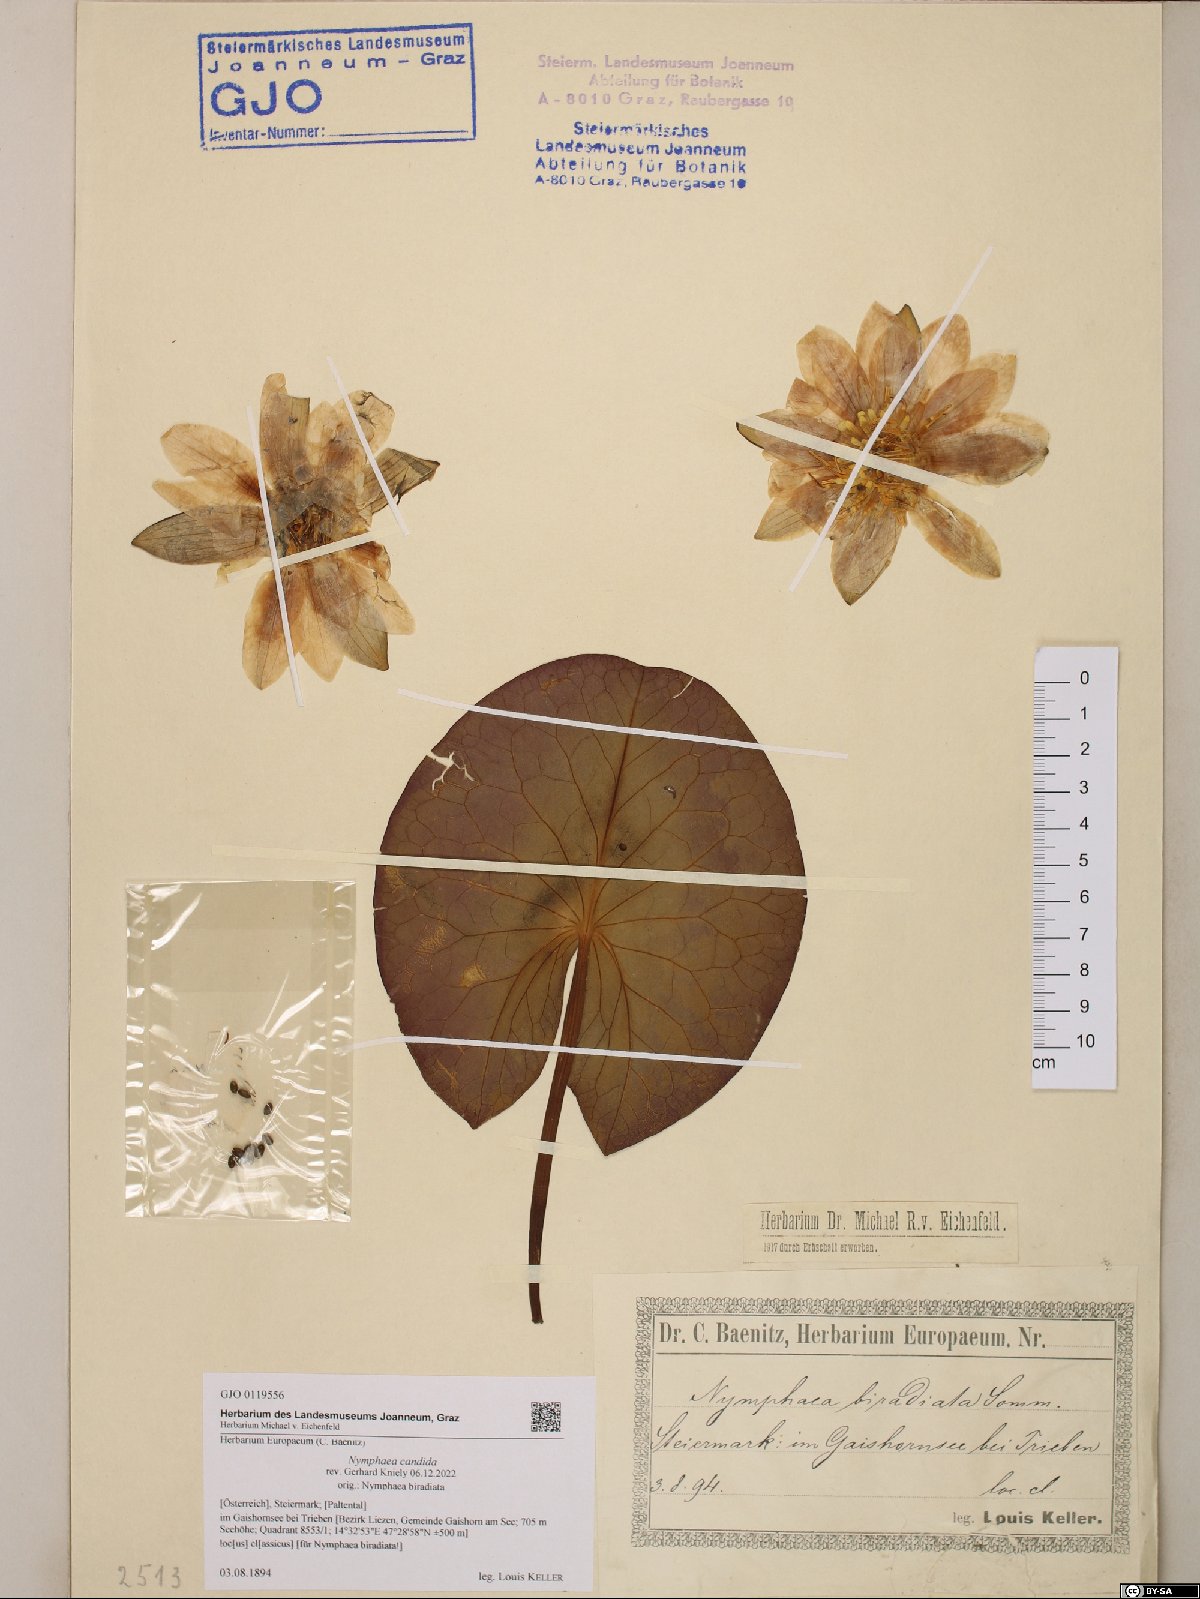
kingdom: Plantae
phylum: Tracheophyta
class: Magnoliopsida
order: Nymphaeales
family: Nymphaeaceae
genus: Nymphaea
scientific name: Nymphaea candida
